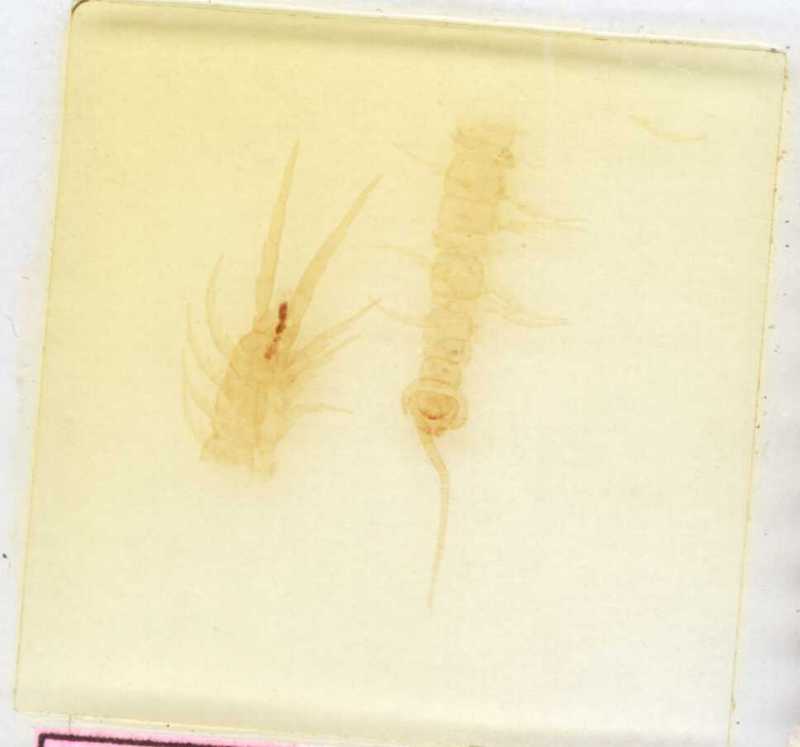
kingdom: Animalia
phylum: Arthropoda
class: Chilopoda
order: Lithobiomorpha
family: Lithobiidae
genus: Lithobius
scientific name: Lithobius lucifugus
